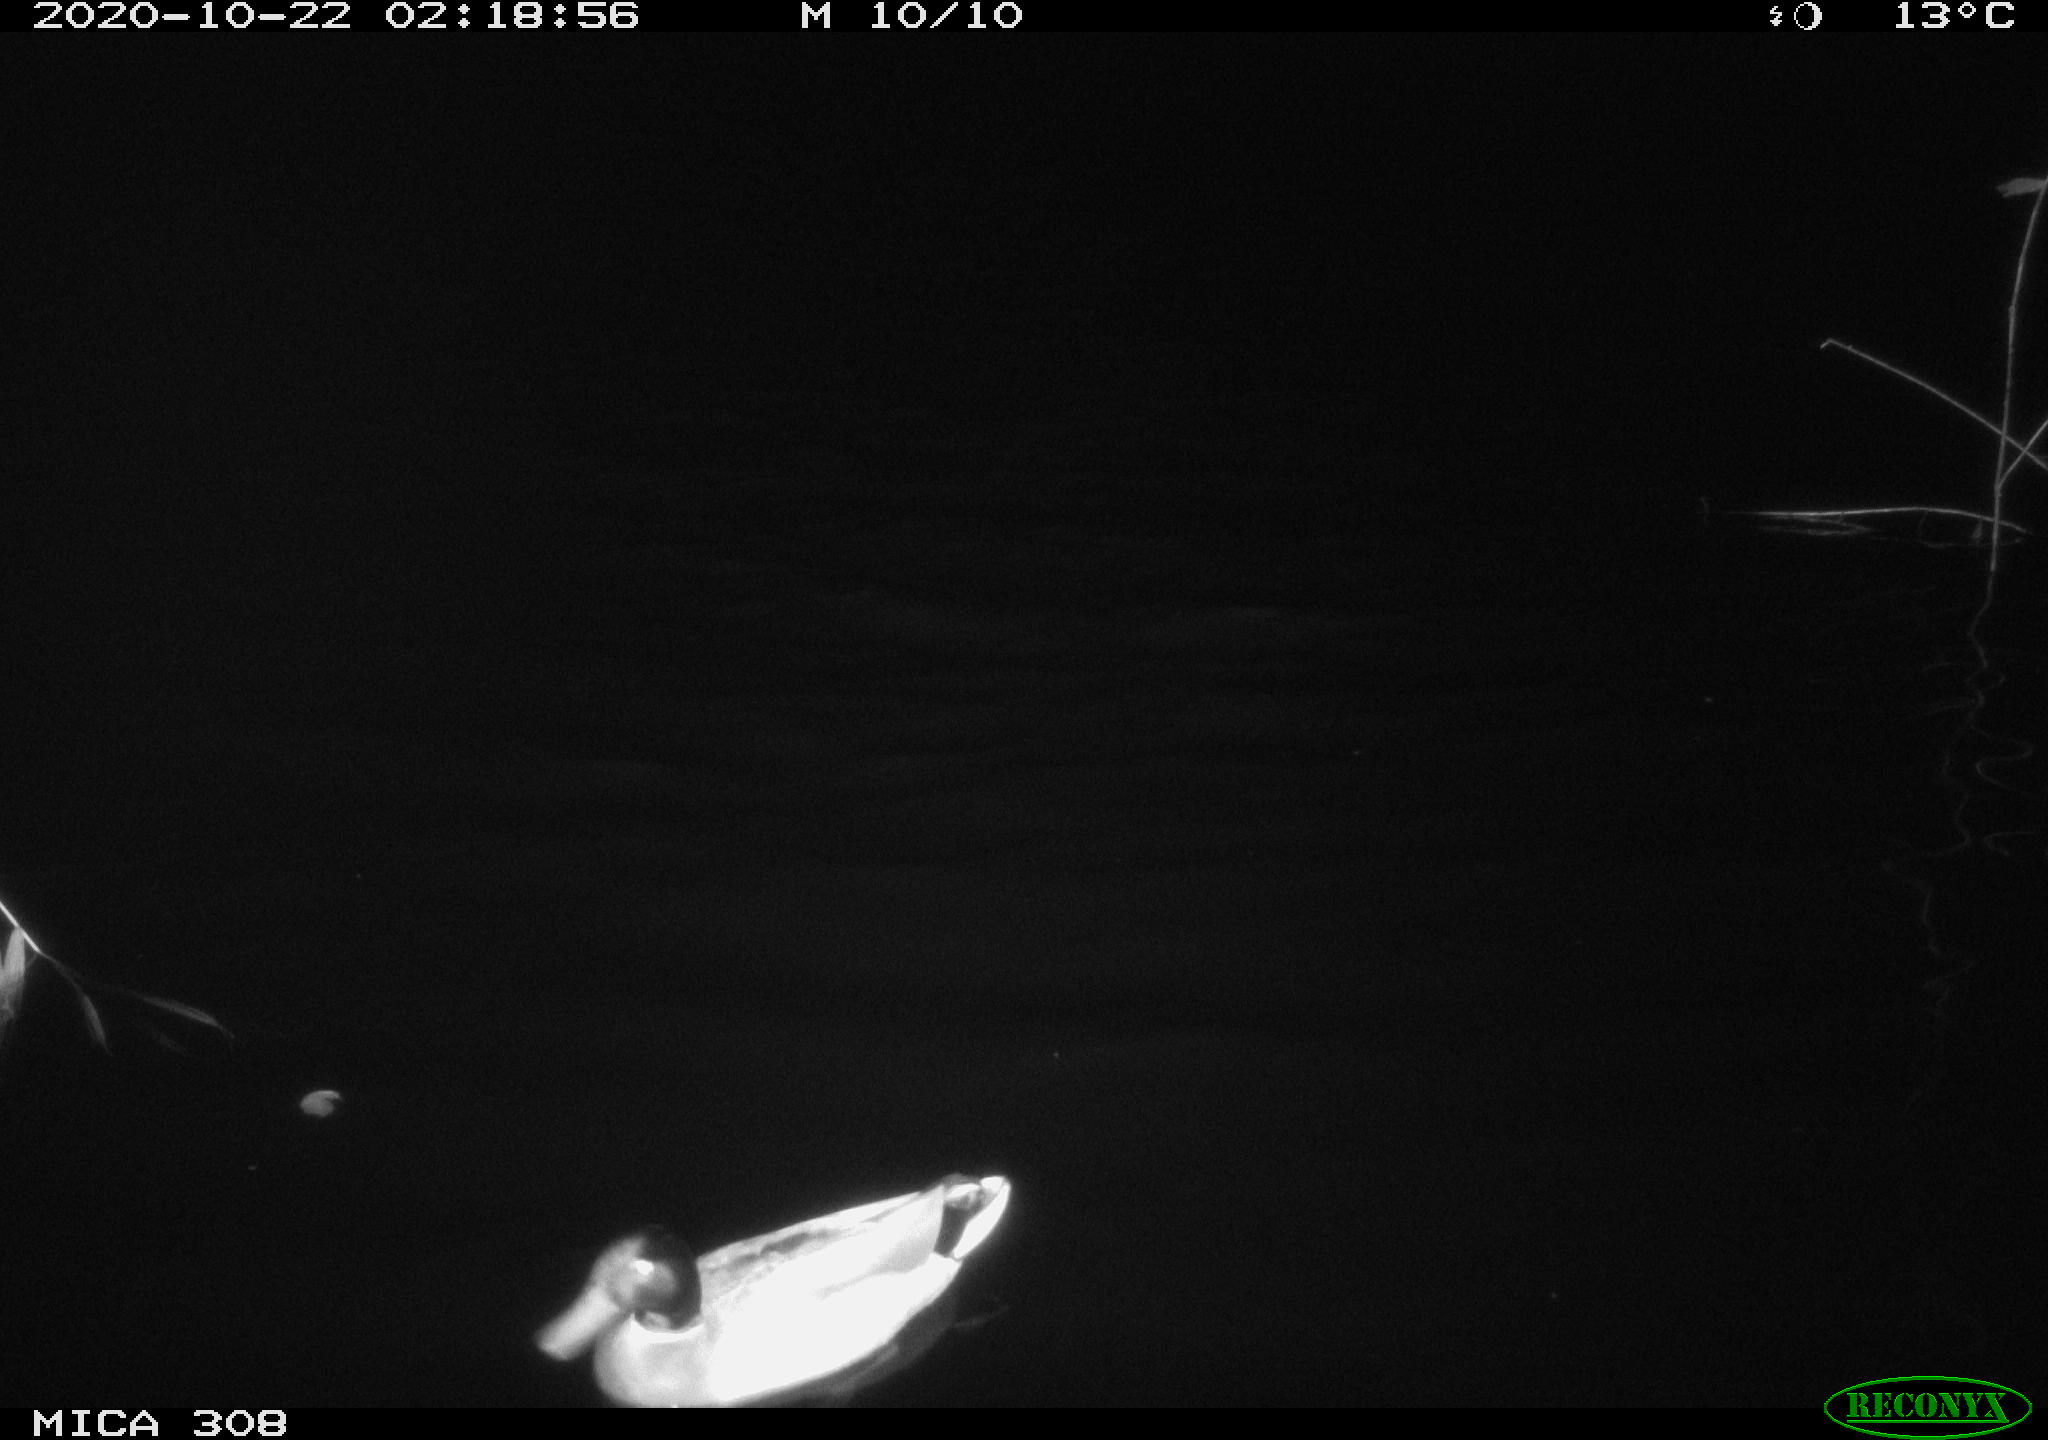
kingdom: Animalia
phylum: Chordata
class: Aves
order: Anseriformes
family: Anatidae
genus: Anas
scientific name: Anas platyrhynchos
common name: Mallard
